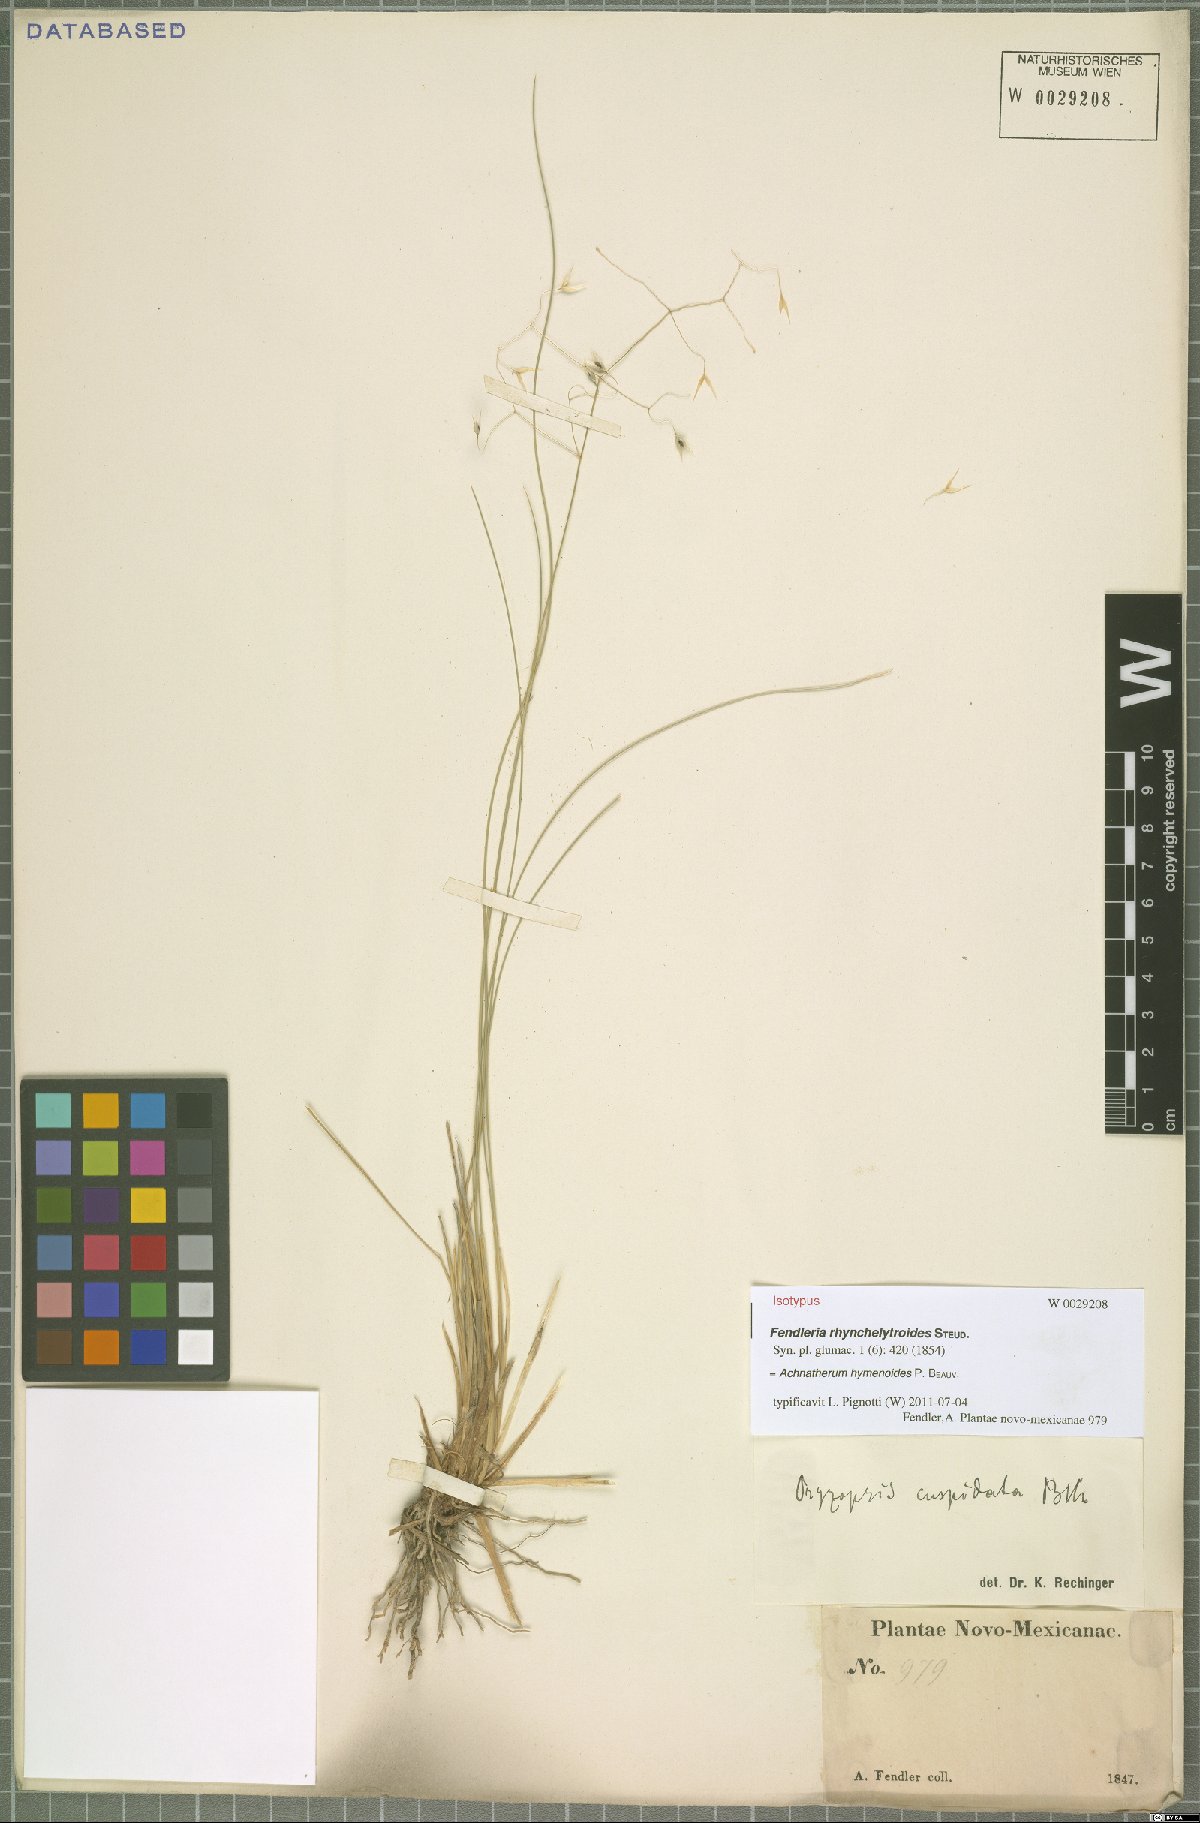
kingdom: Plantae
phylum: Tracheophyta
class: Liliopsida
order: Poales
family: Poaceae
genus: Eriocoma
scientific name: Eriocoma hymenoides
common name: Indian mountain ricegrass
